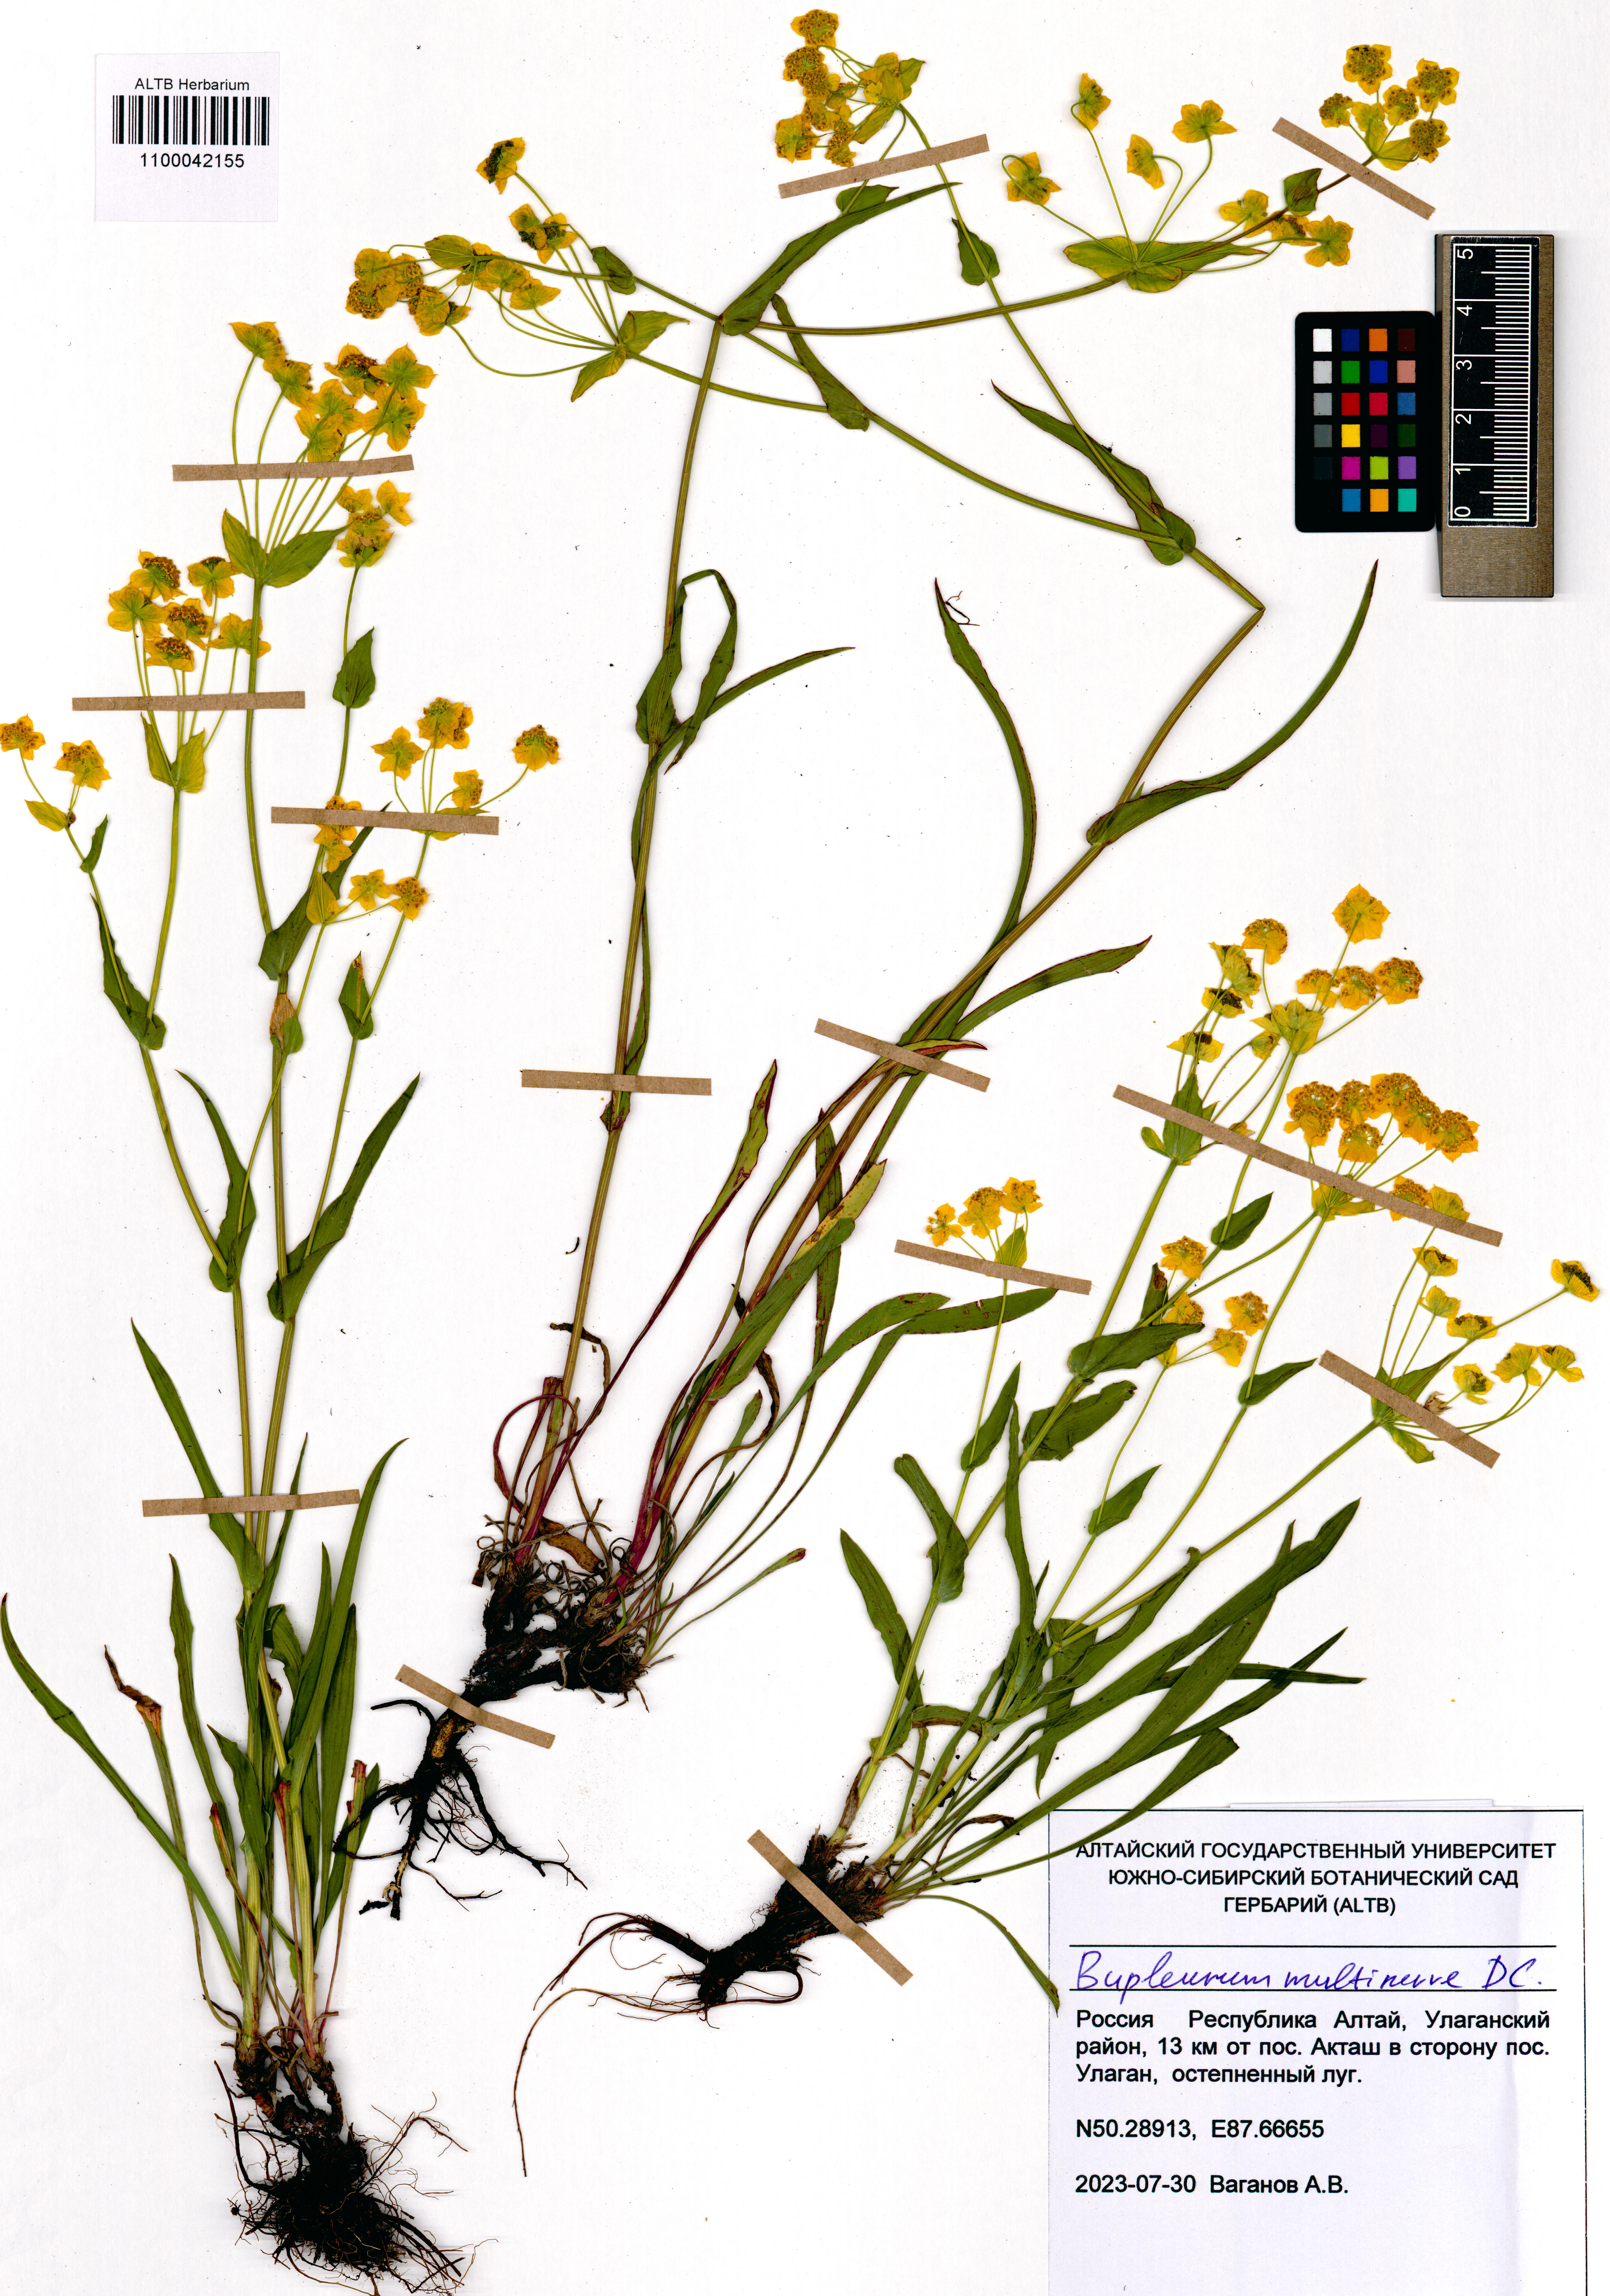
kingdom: Plantae
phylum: Tracheophyta
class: Magnoliopsida
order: Apiales
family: Apiaceae
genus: Bupleurum
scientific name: Bupleurum multinerve
